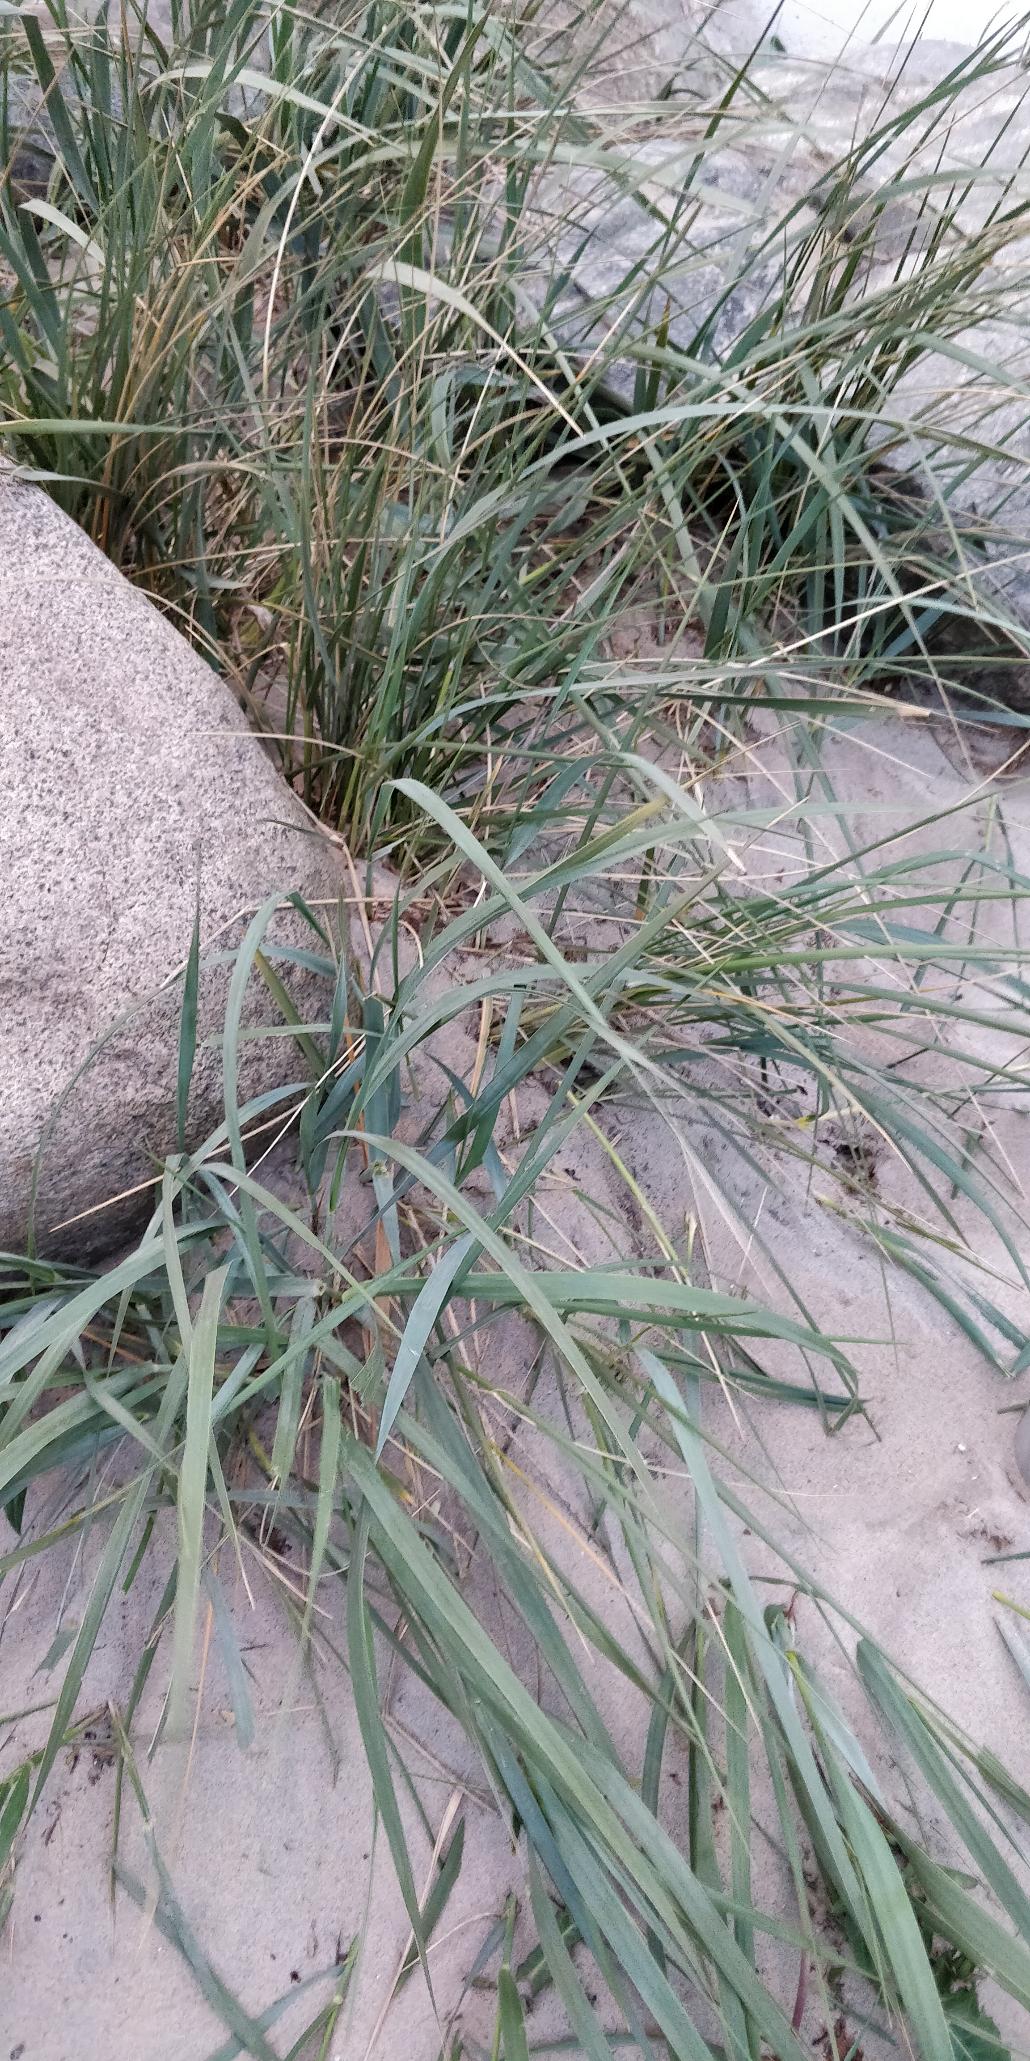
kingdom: Plantae
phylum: Tracheophyta
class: Liliopsida
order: Poales
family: Poaceae
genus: Leymus
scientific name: Leymus arenarius
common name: Marehalm
